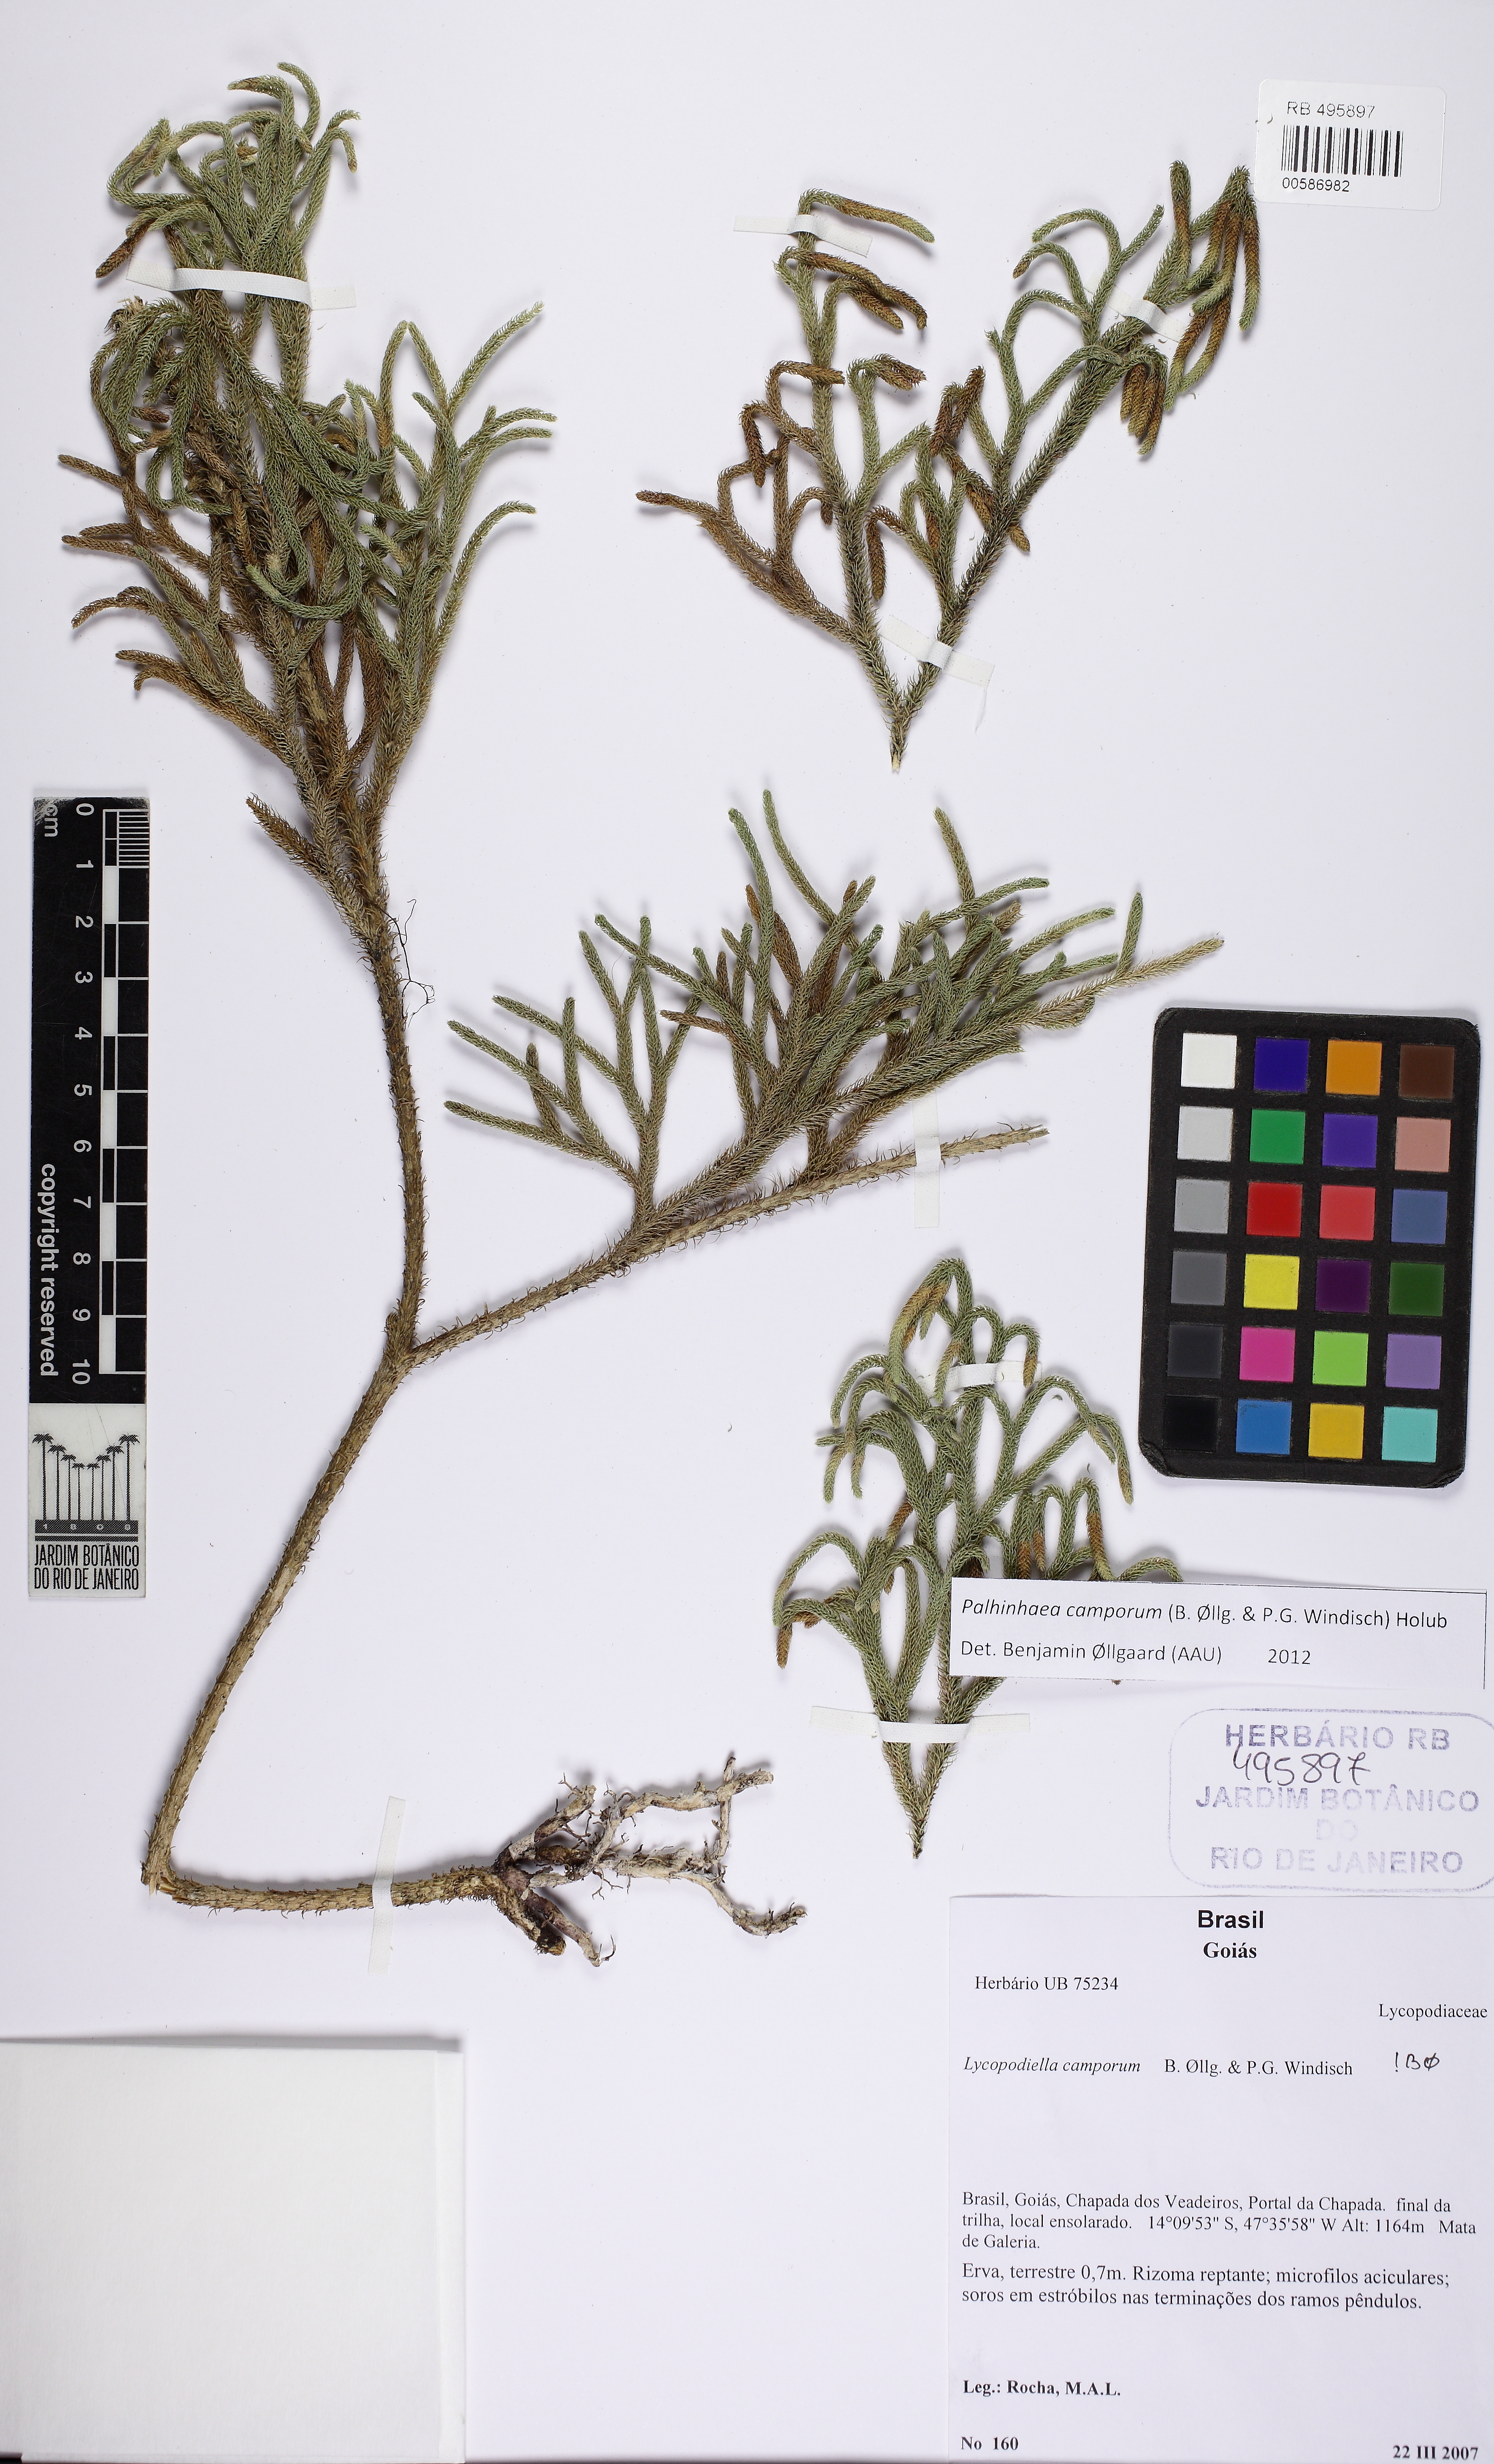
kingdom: Plantae
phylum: Tracheophyta
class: Lycopodiopsida
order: Lycopodiales
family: Lycopodiaceae
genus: Palhinhaea
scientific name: Palhinhaea camporum
